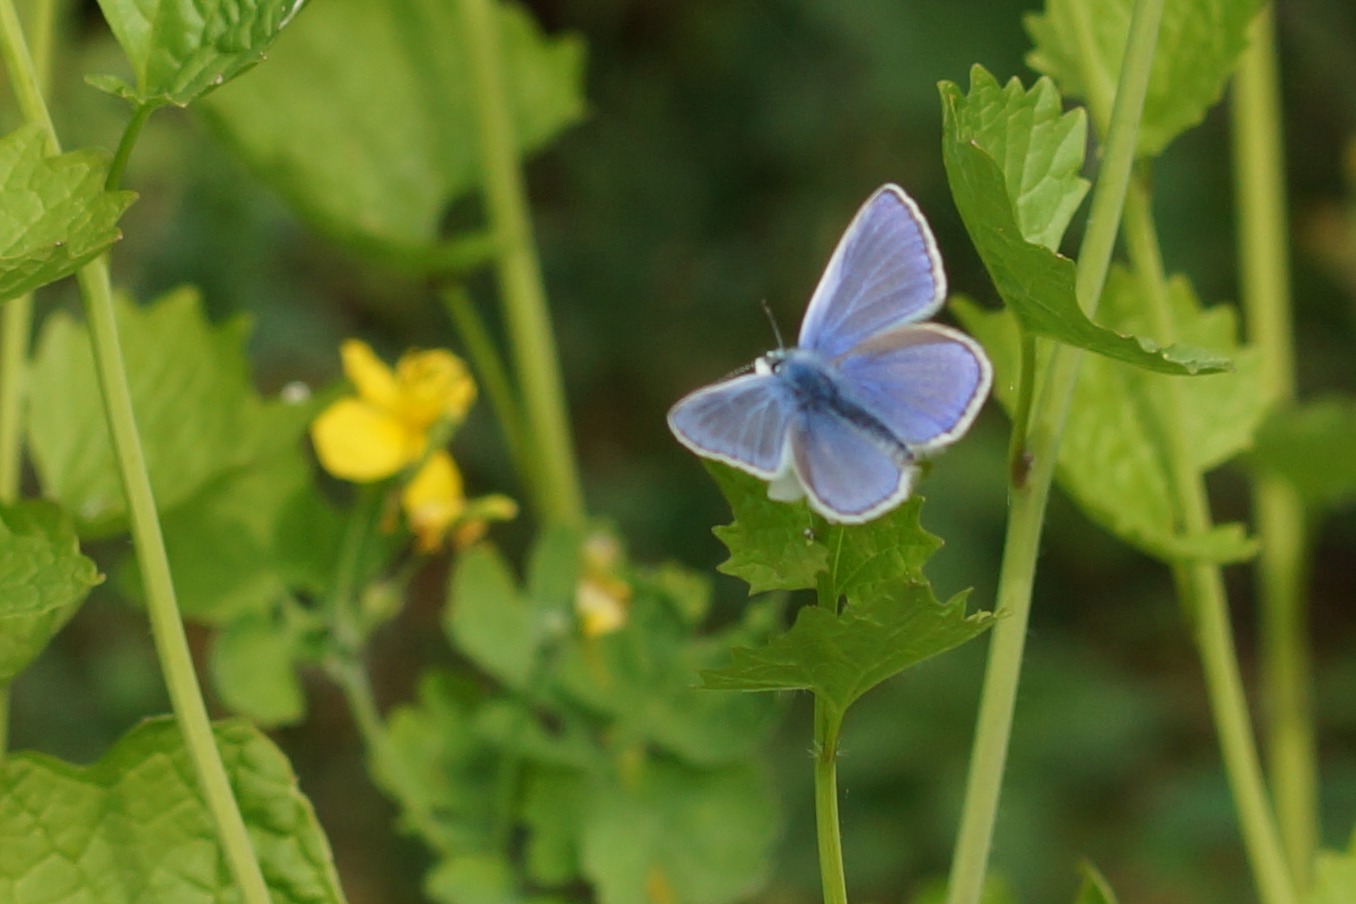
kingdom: Animalia
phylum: Arthropoda
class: Insecta
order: Lepidoptera
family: Lycaenidae
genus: Polyommatus
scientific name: Polyommatus icarus
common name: Almindelig blåfugl
